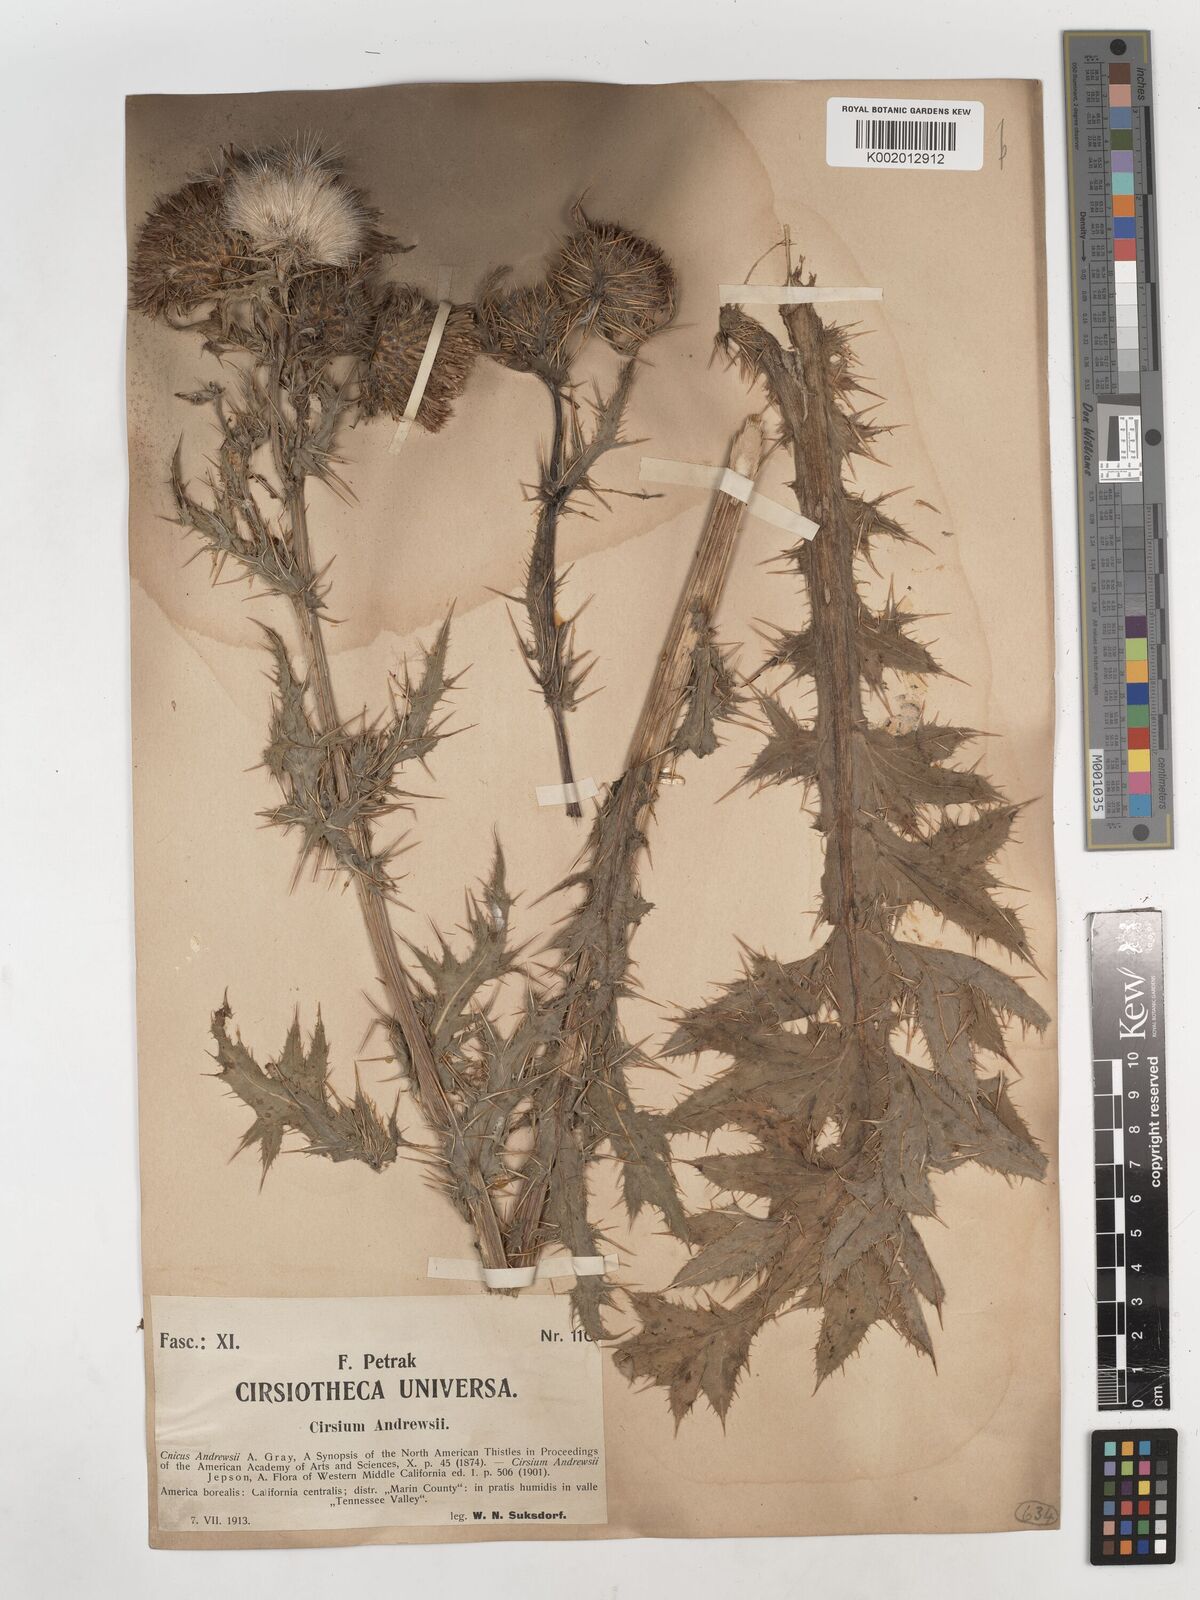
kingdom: Plantae
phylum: Tracheophyta
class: Magnoliopsida
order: Asterales
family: Asteraceae
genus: Cirsium
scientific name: Cirsium andrewsii
